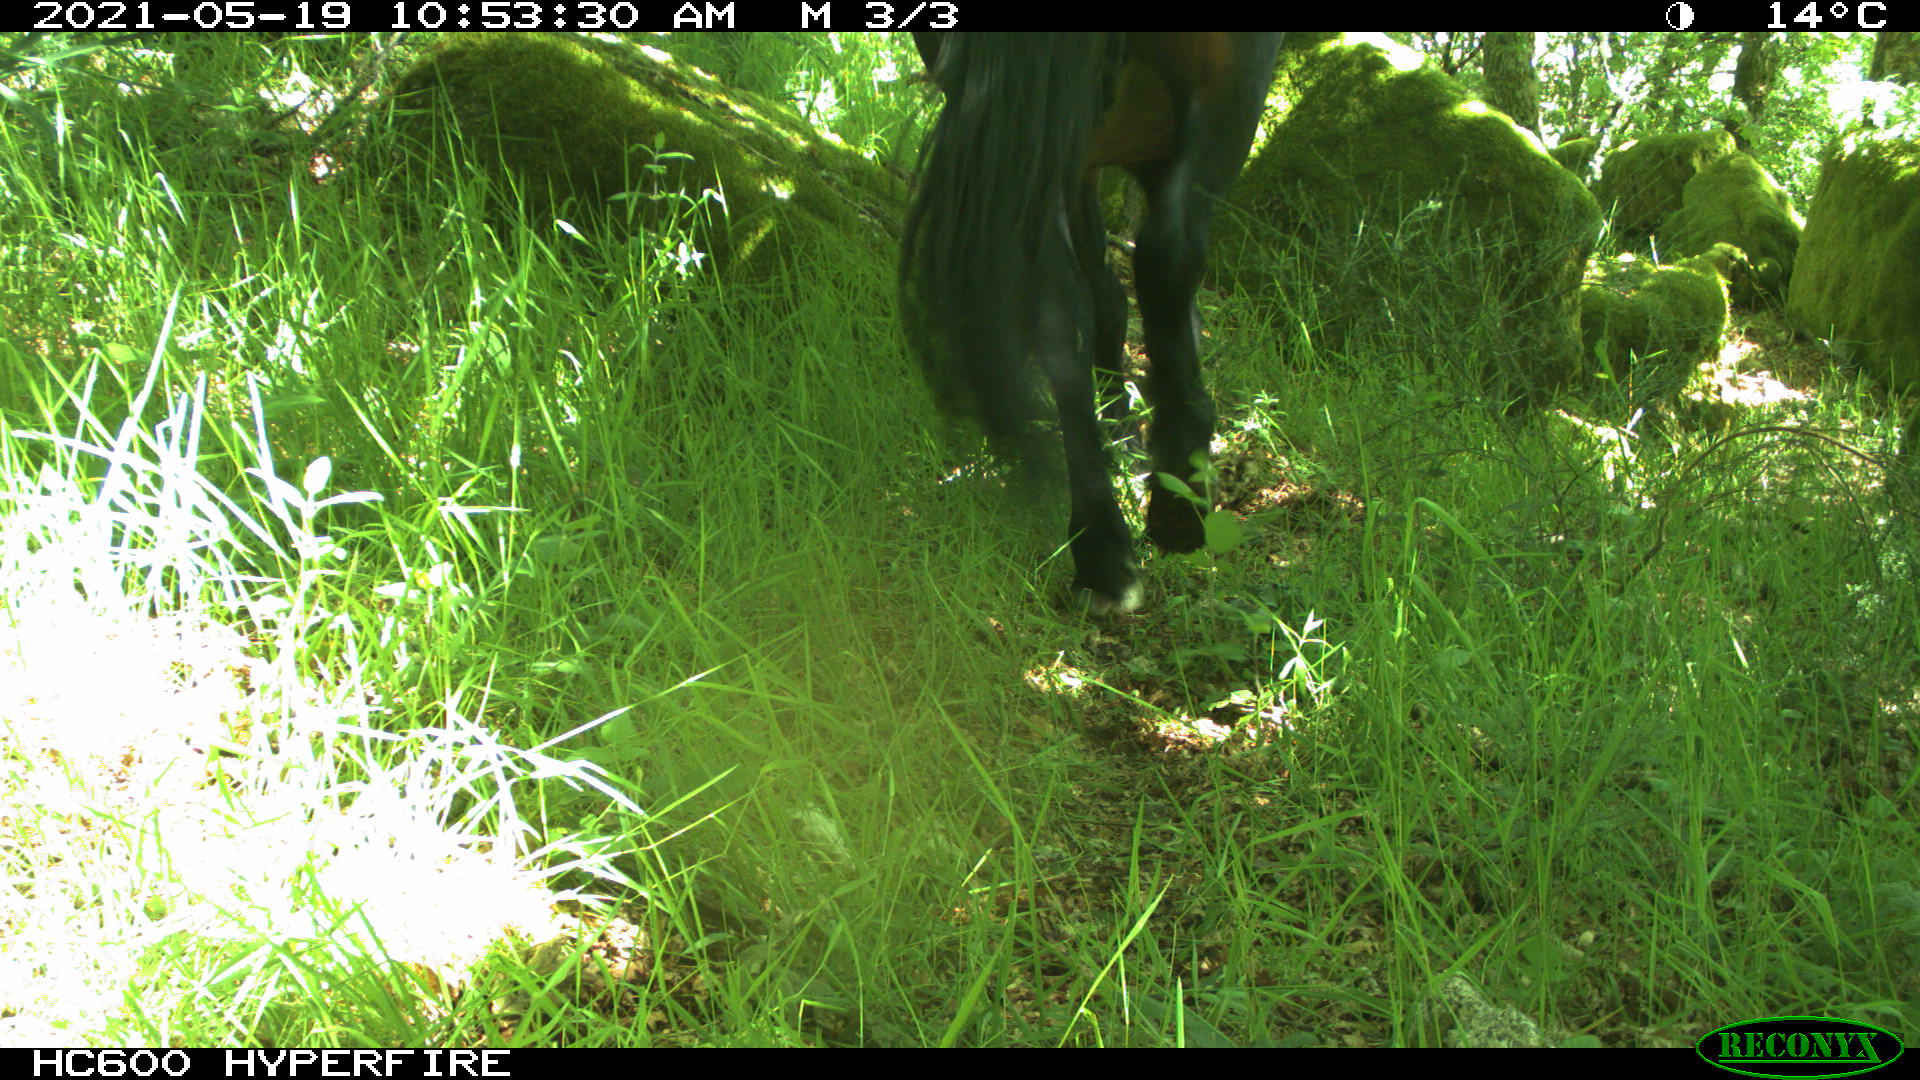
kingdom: Animalia
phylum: Chordata
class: Mammalia
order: Perissodactyla
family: Equidae
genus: Equus
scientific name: Equus caballus
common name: Horse
